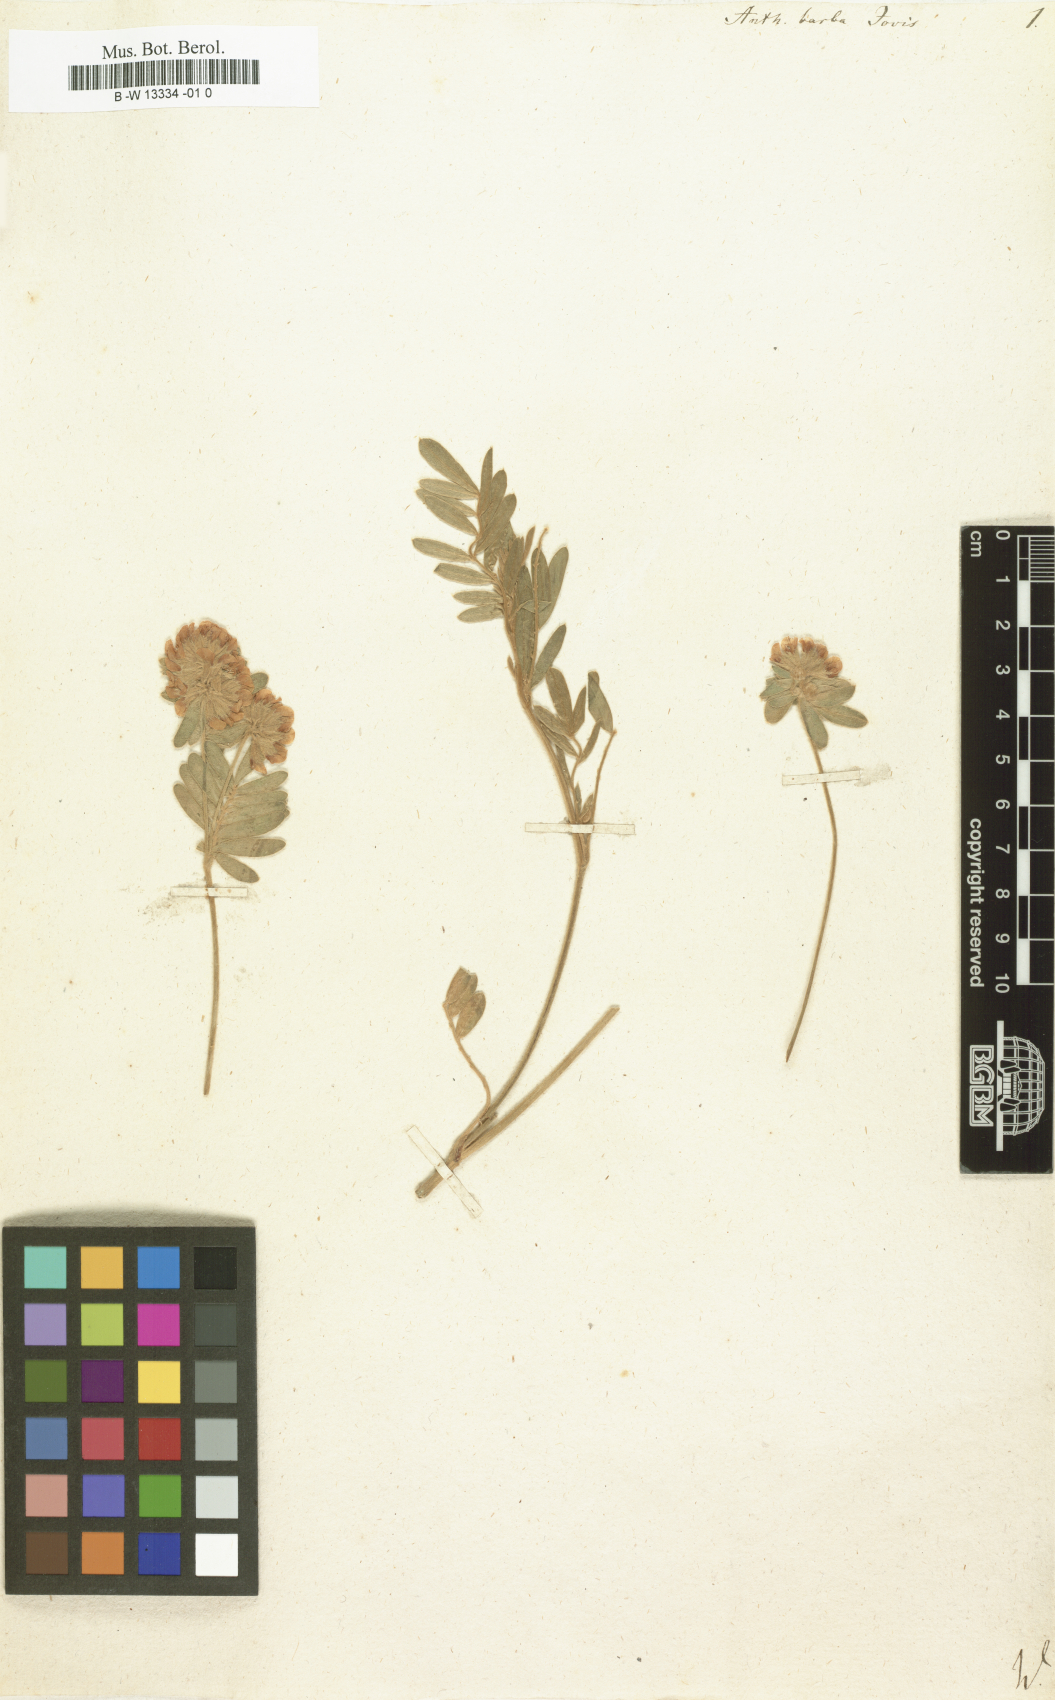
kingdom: Plantae
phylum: Tracheophyta
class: Magnoliopsida
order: Fabales
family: Fabaceae
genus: Anthyllis
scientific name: Anthyllis barba-jovis
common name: Jupiter's-beard
